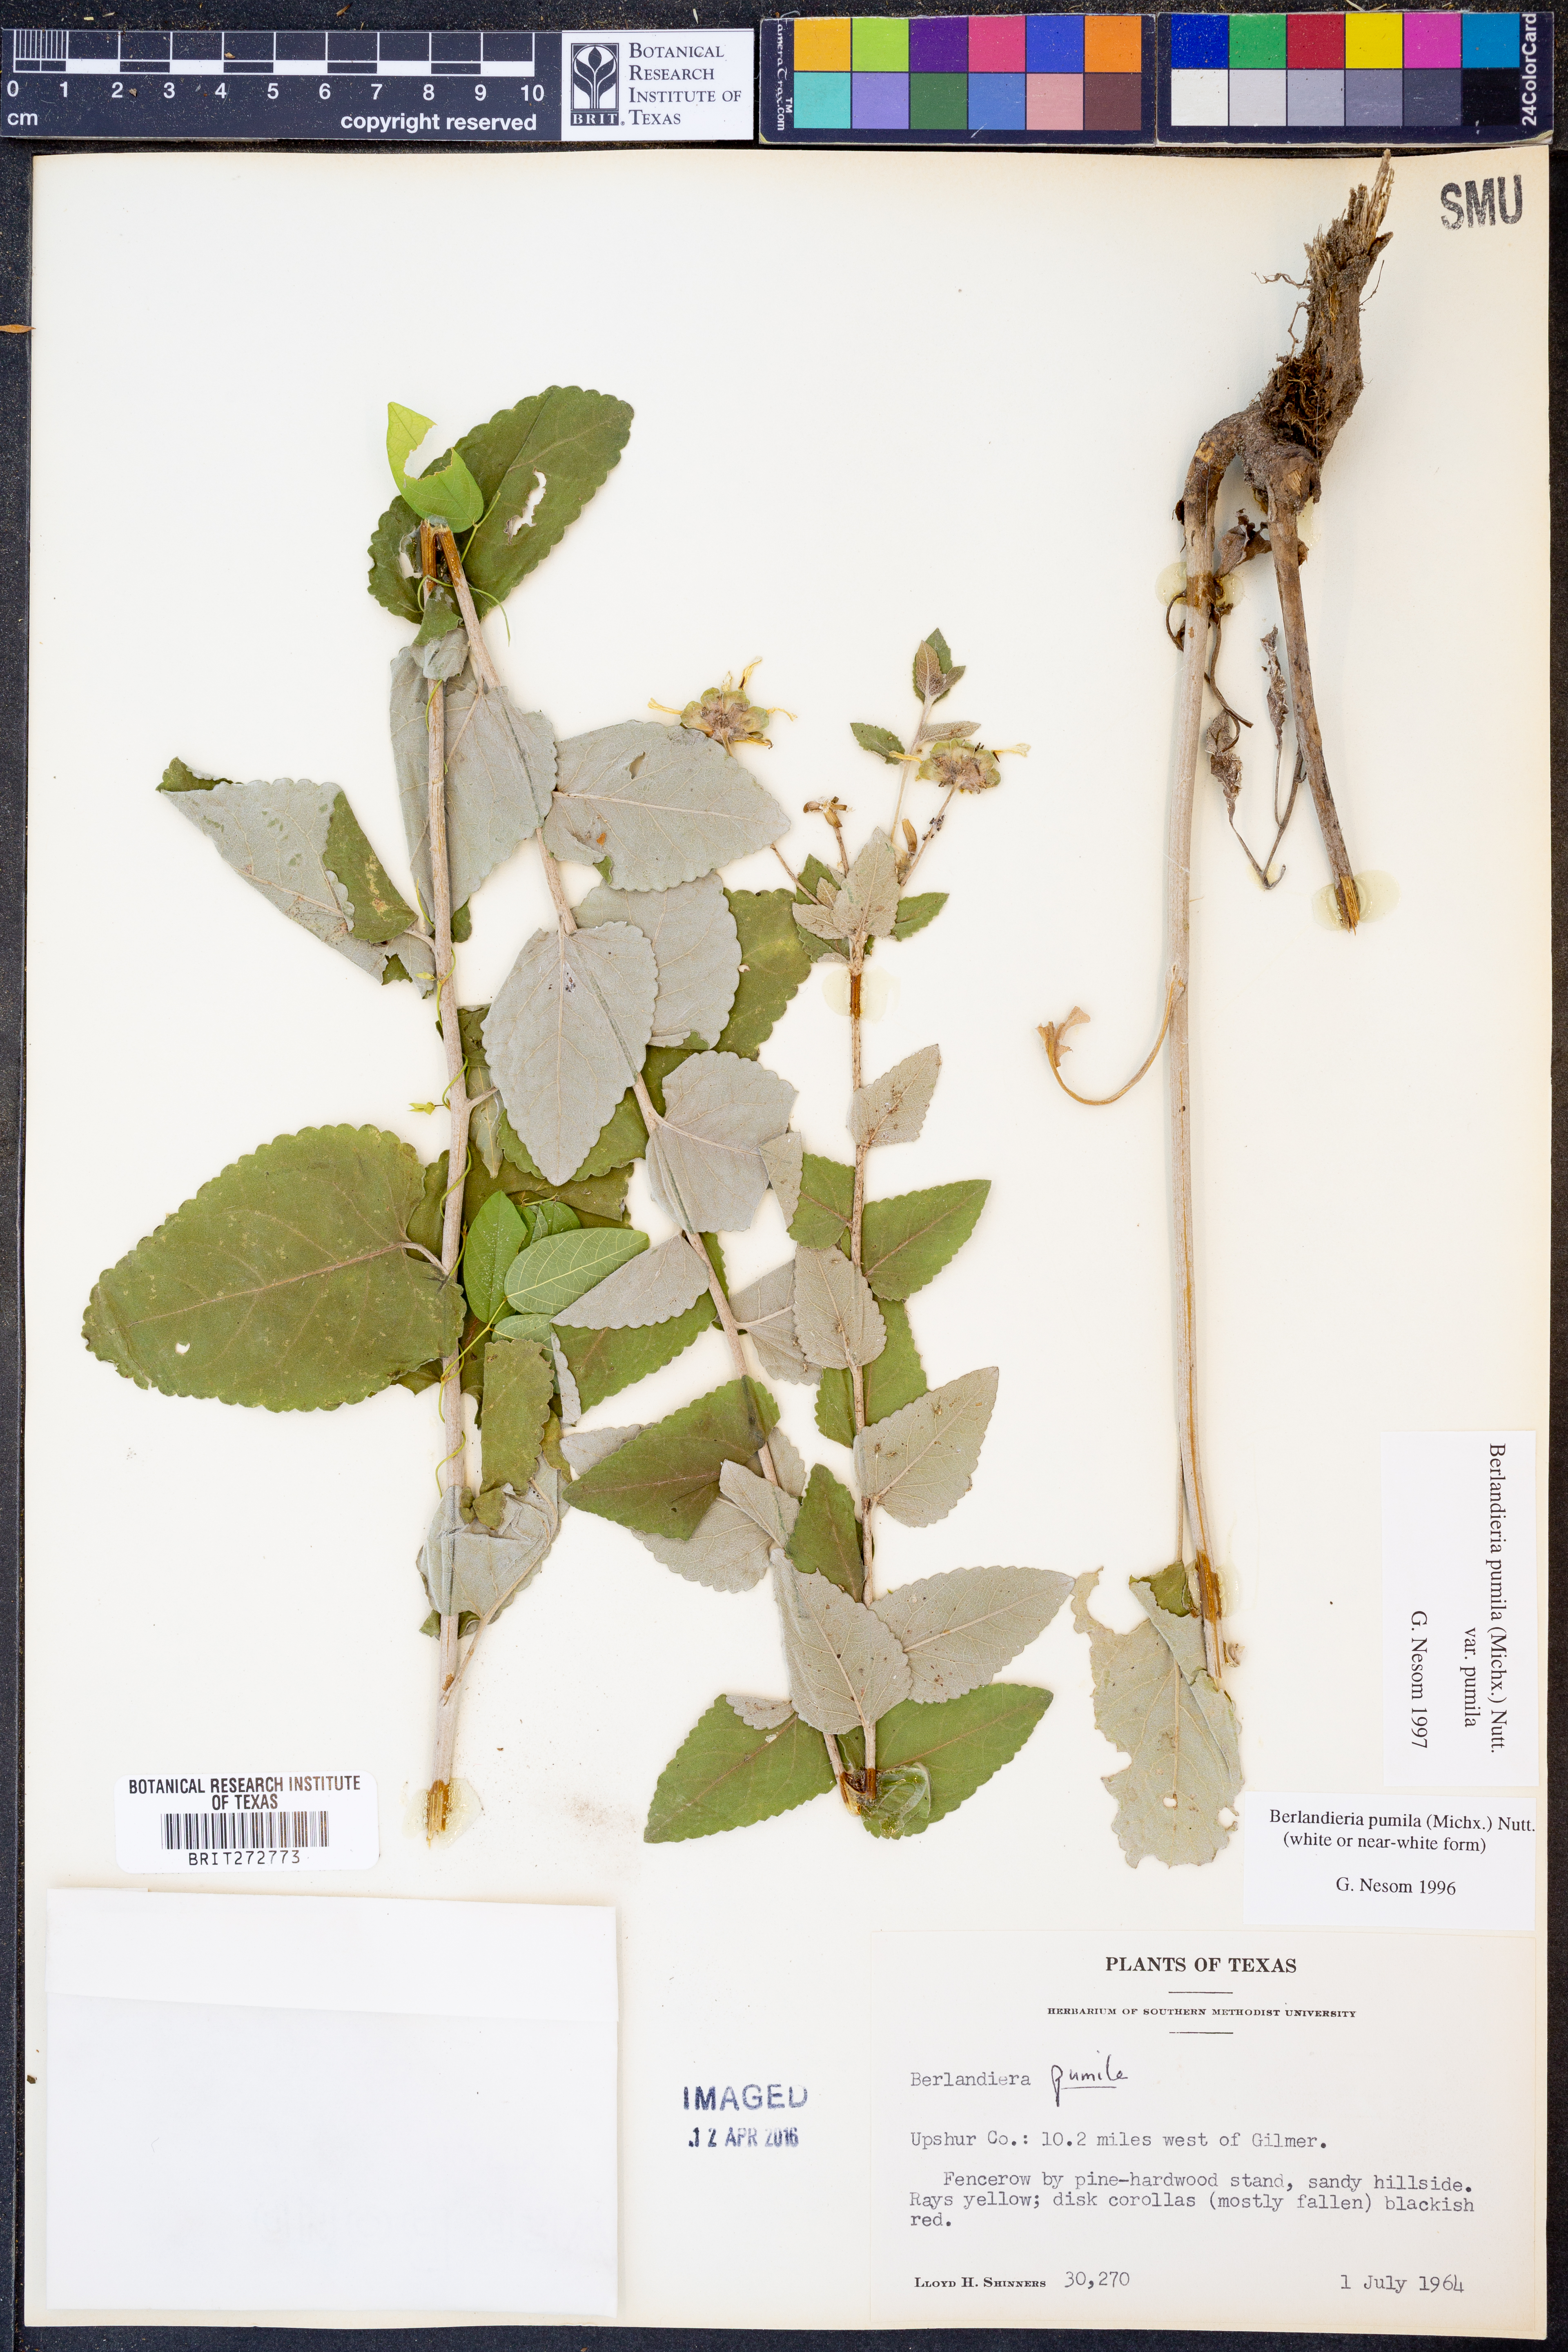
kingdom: Plantae
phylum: Tracheophyta
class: Magnoliopsida
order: Asterales
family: Asteraceae
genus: Berlandiera
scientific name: Berlandiera pumila
